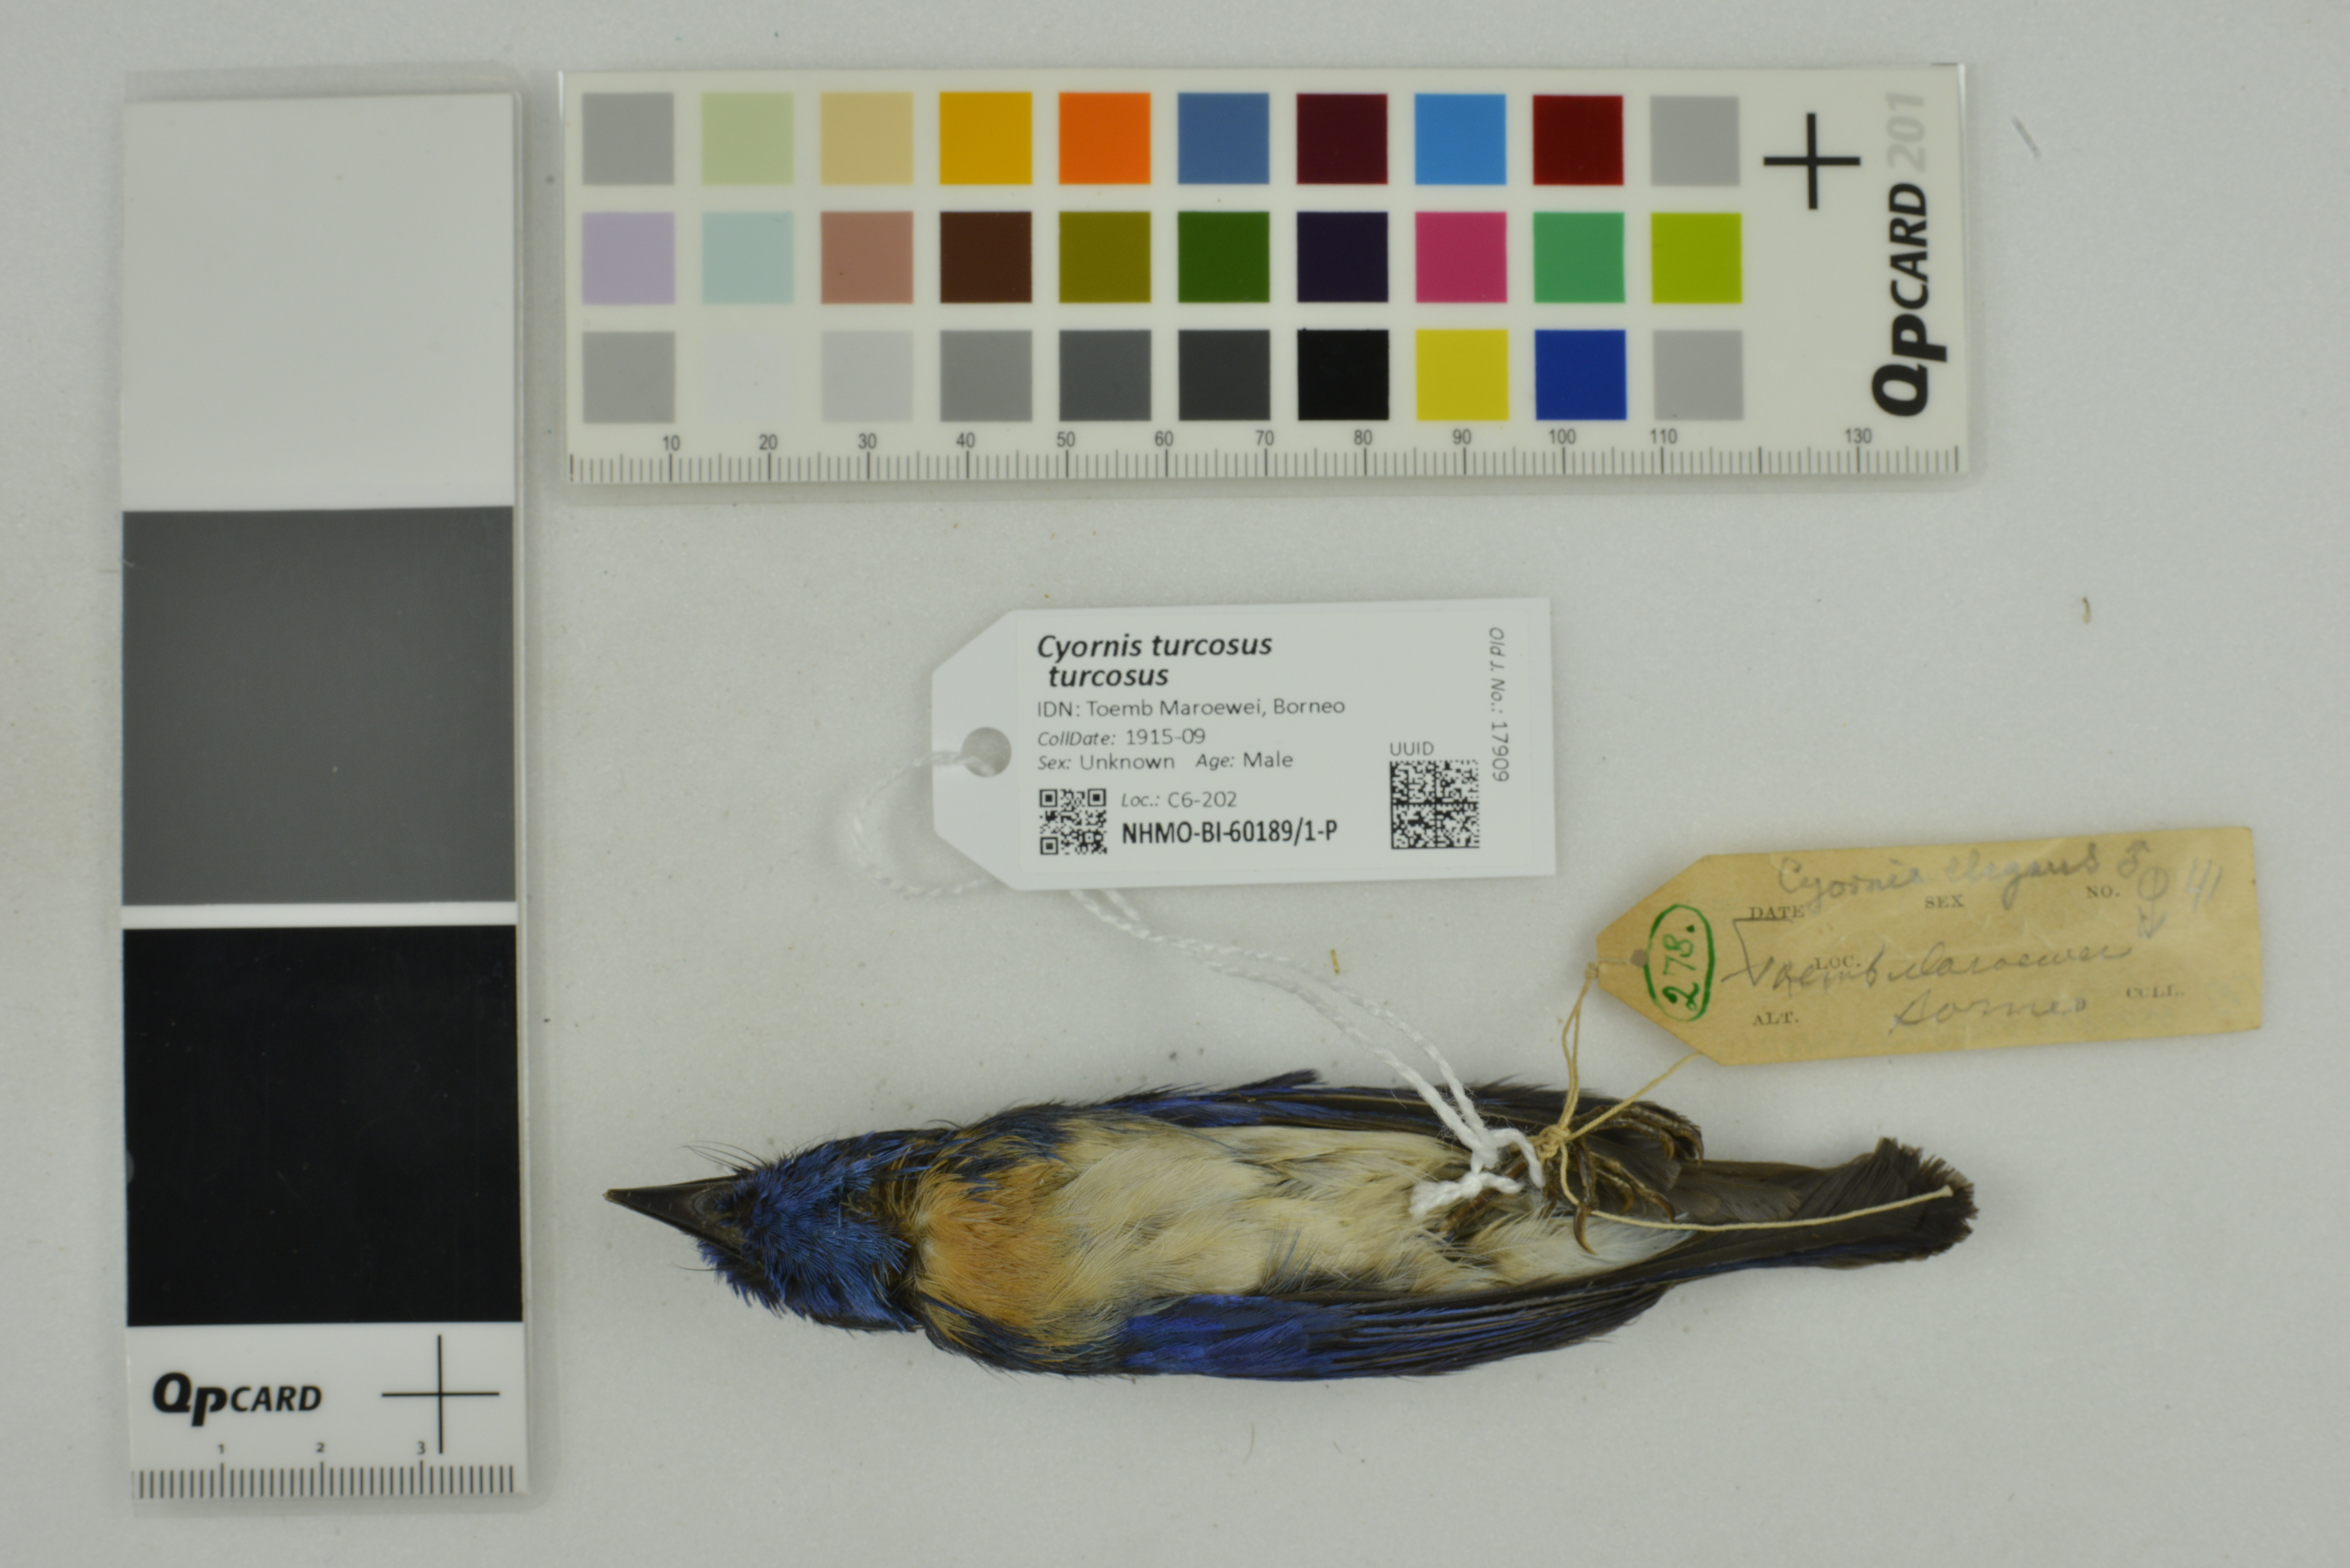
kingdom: Animalia
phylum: Chordata
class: Aves
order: Passeriformes
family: Muscicapidae
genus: Cyornis
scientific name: Cyornis turcosus
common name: Malaysian blue flycatcher
